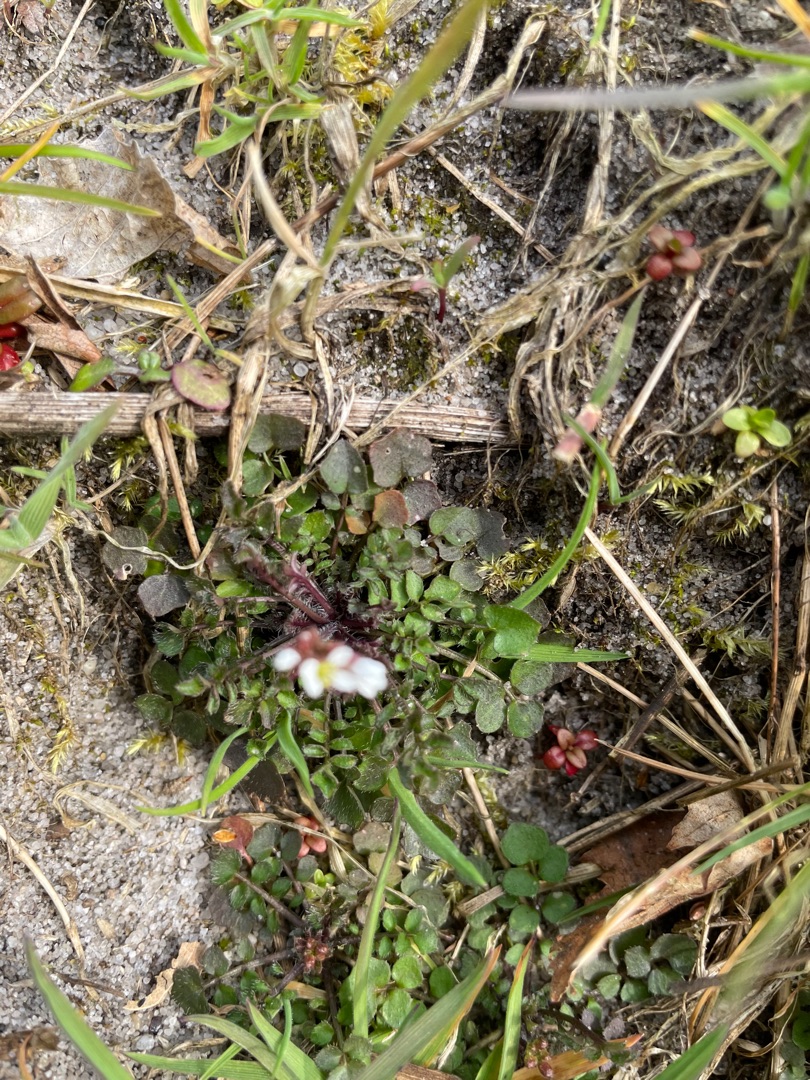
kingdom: Plantae
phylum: Tracheophyta
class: Magnoliopsida
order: Brassicales
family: Brassicaceae
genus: Cardamine
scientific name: Cardamine hirsuta
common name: Roset-springklap
